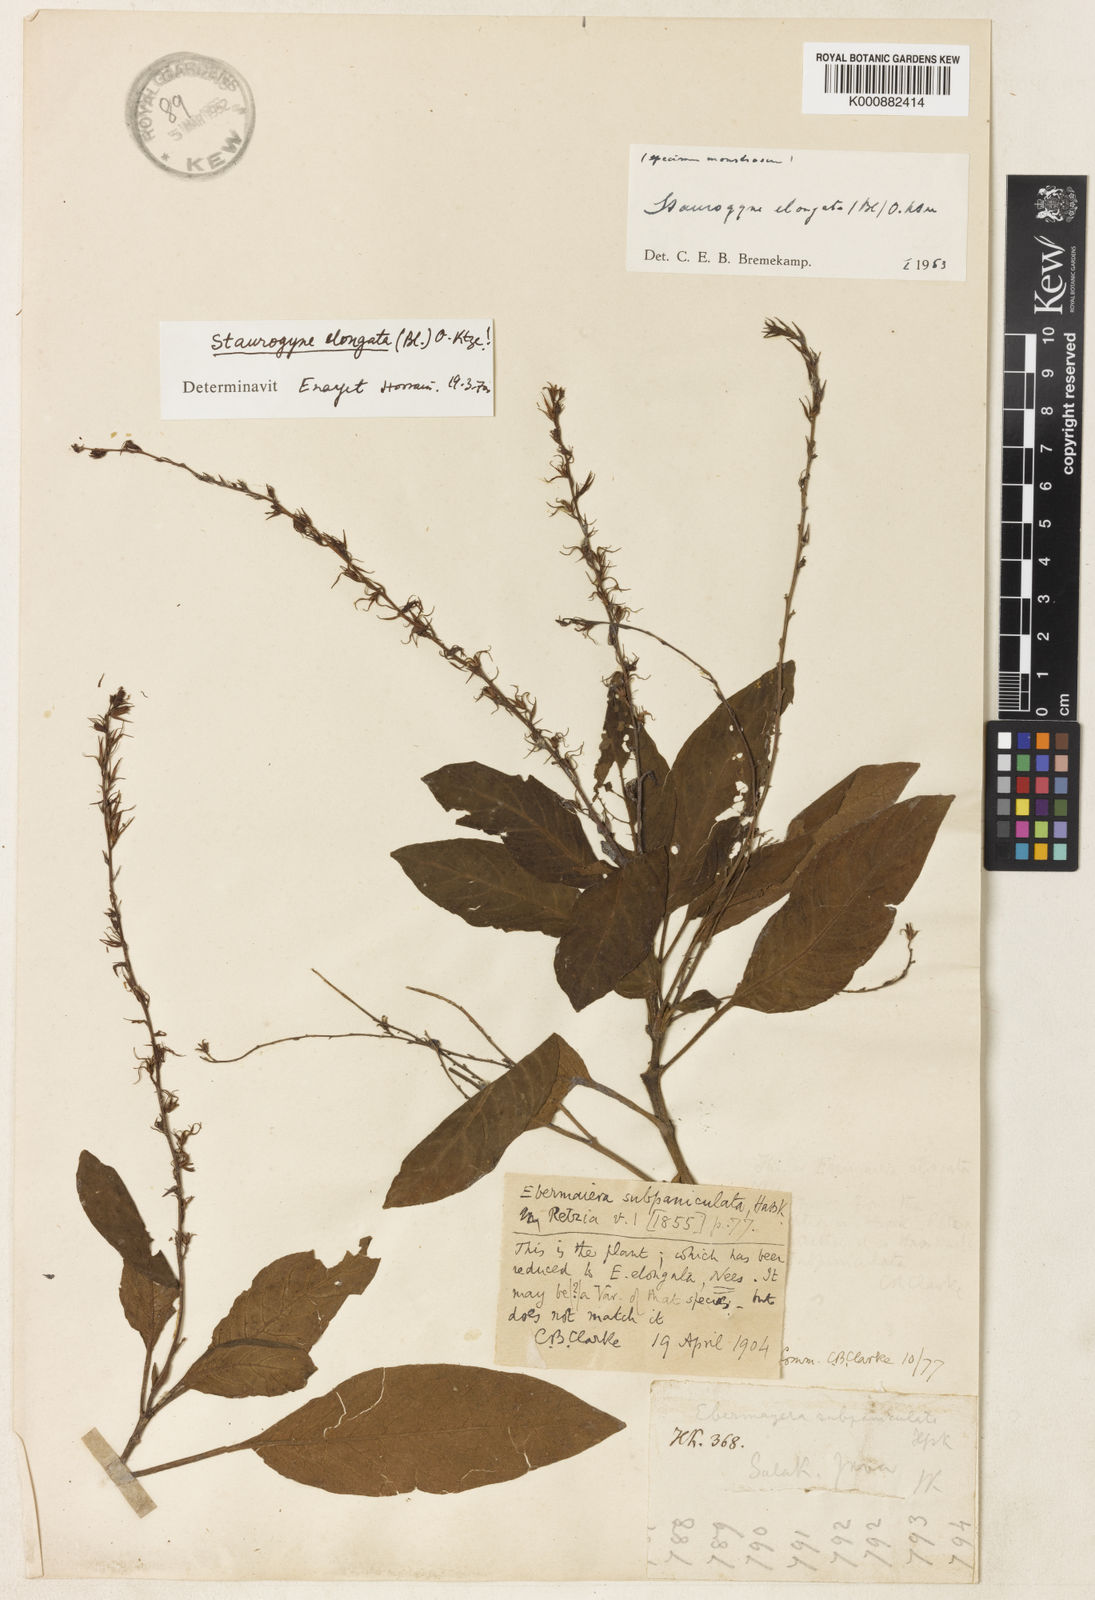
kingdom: Plantae
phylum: Tracheophyta
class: Magnoliopsida
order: Lamiales
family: Acanthaceae
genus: Staurogyne
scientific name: Staurogyne elongata
